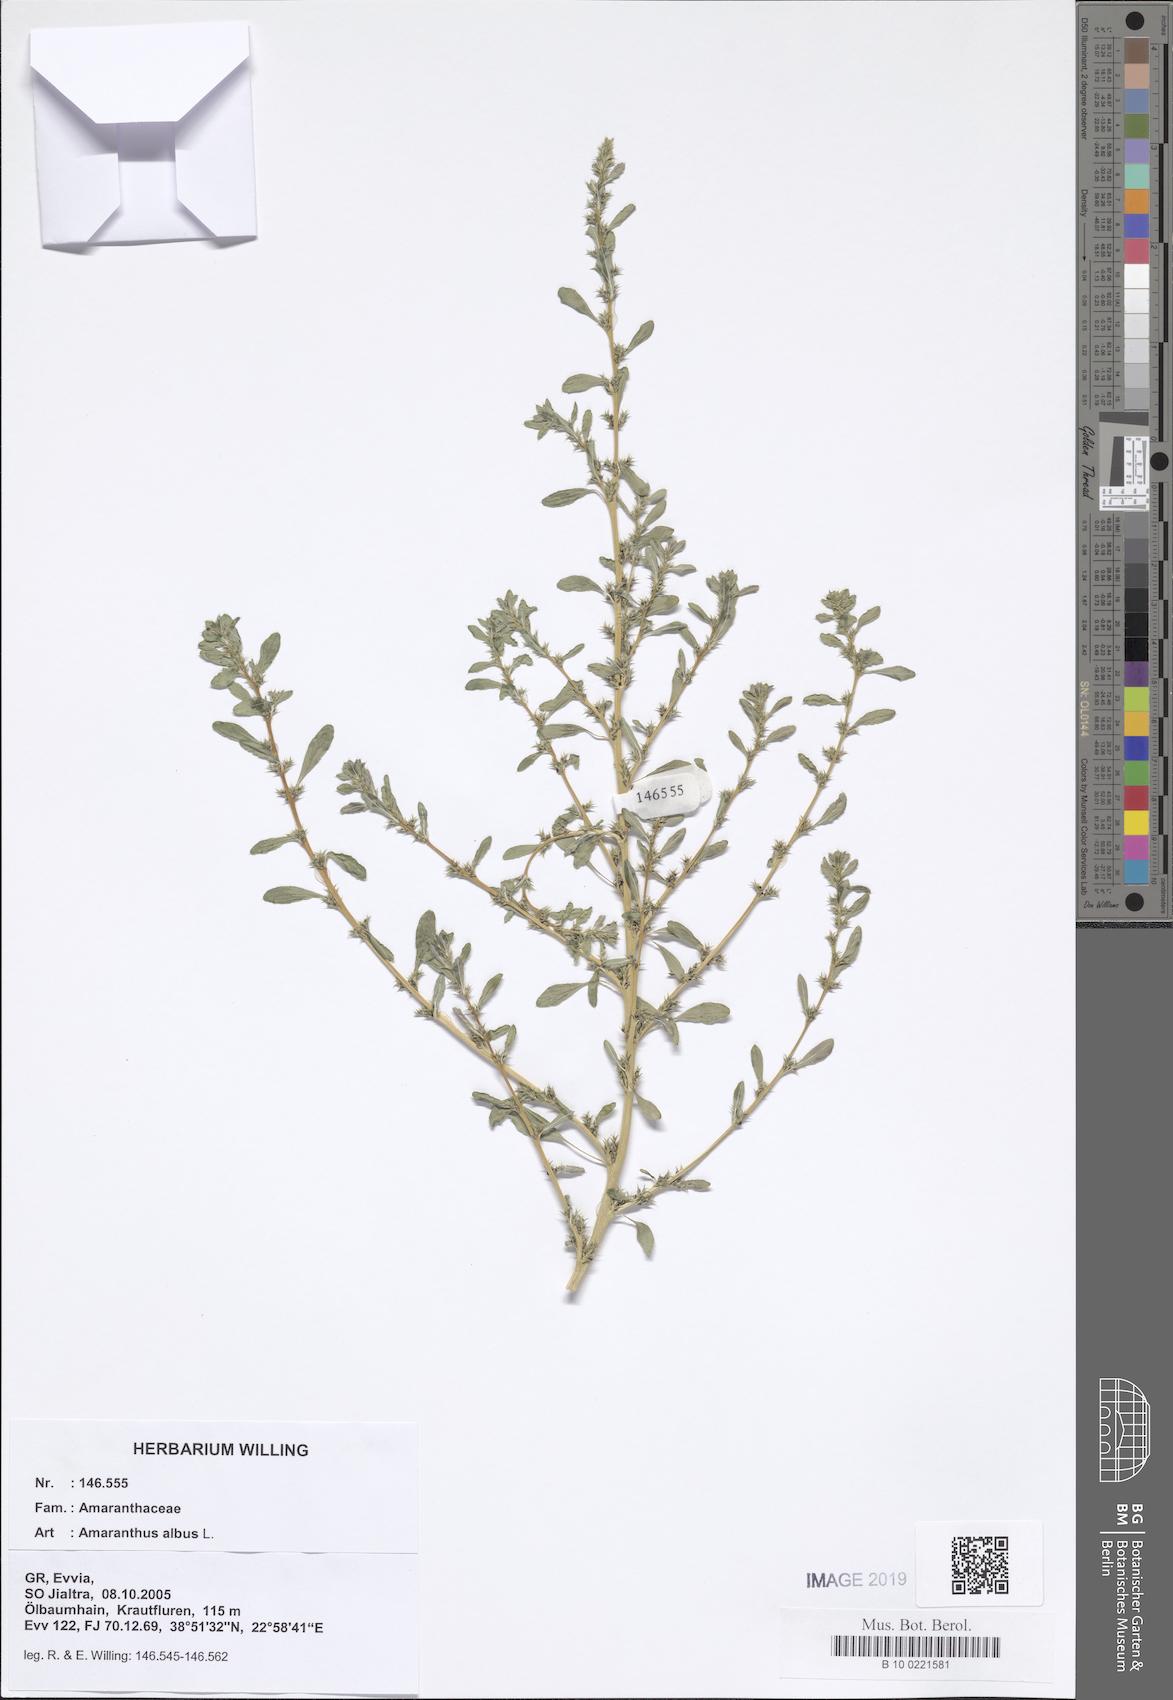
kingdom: Plantae
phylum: Tracheophyta
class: Magnoliopsida
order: Caryophyllales
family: Amaranthaceae
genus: Amaranthus
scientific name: Amaranthus albus
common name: White pigweed
